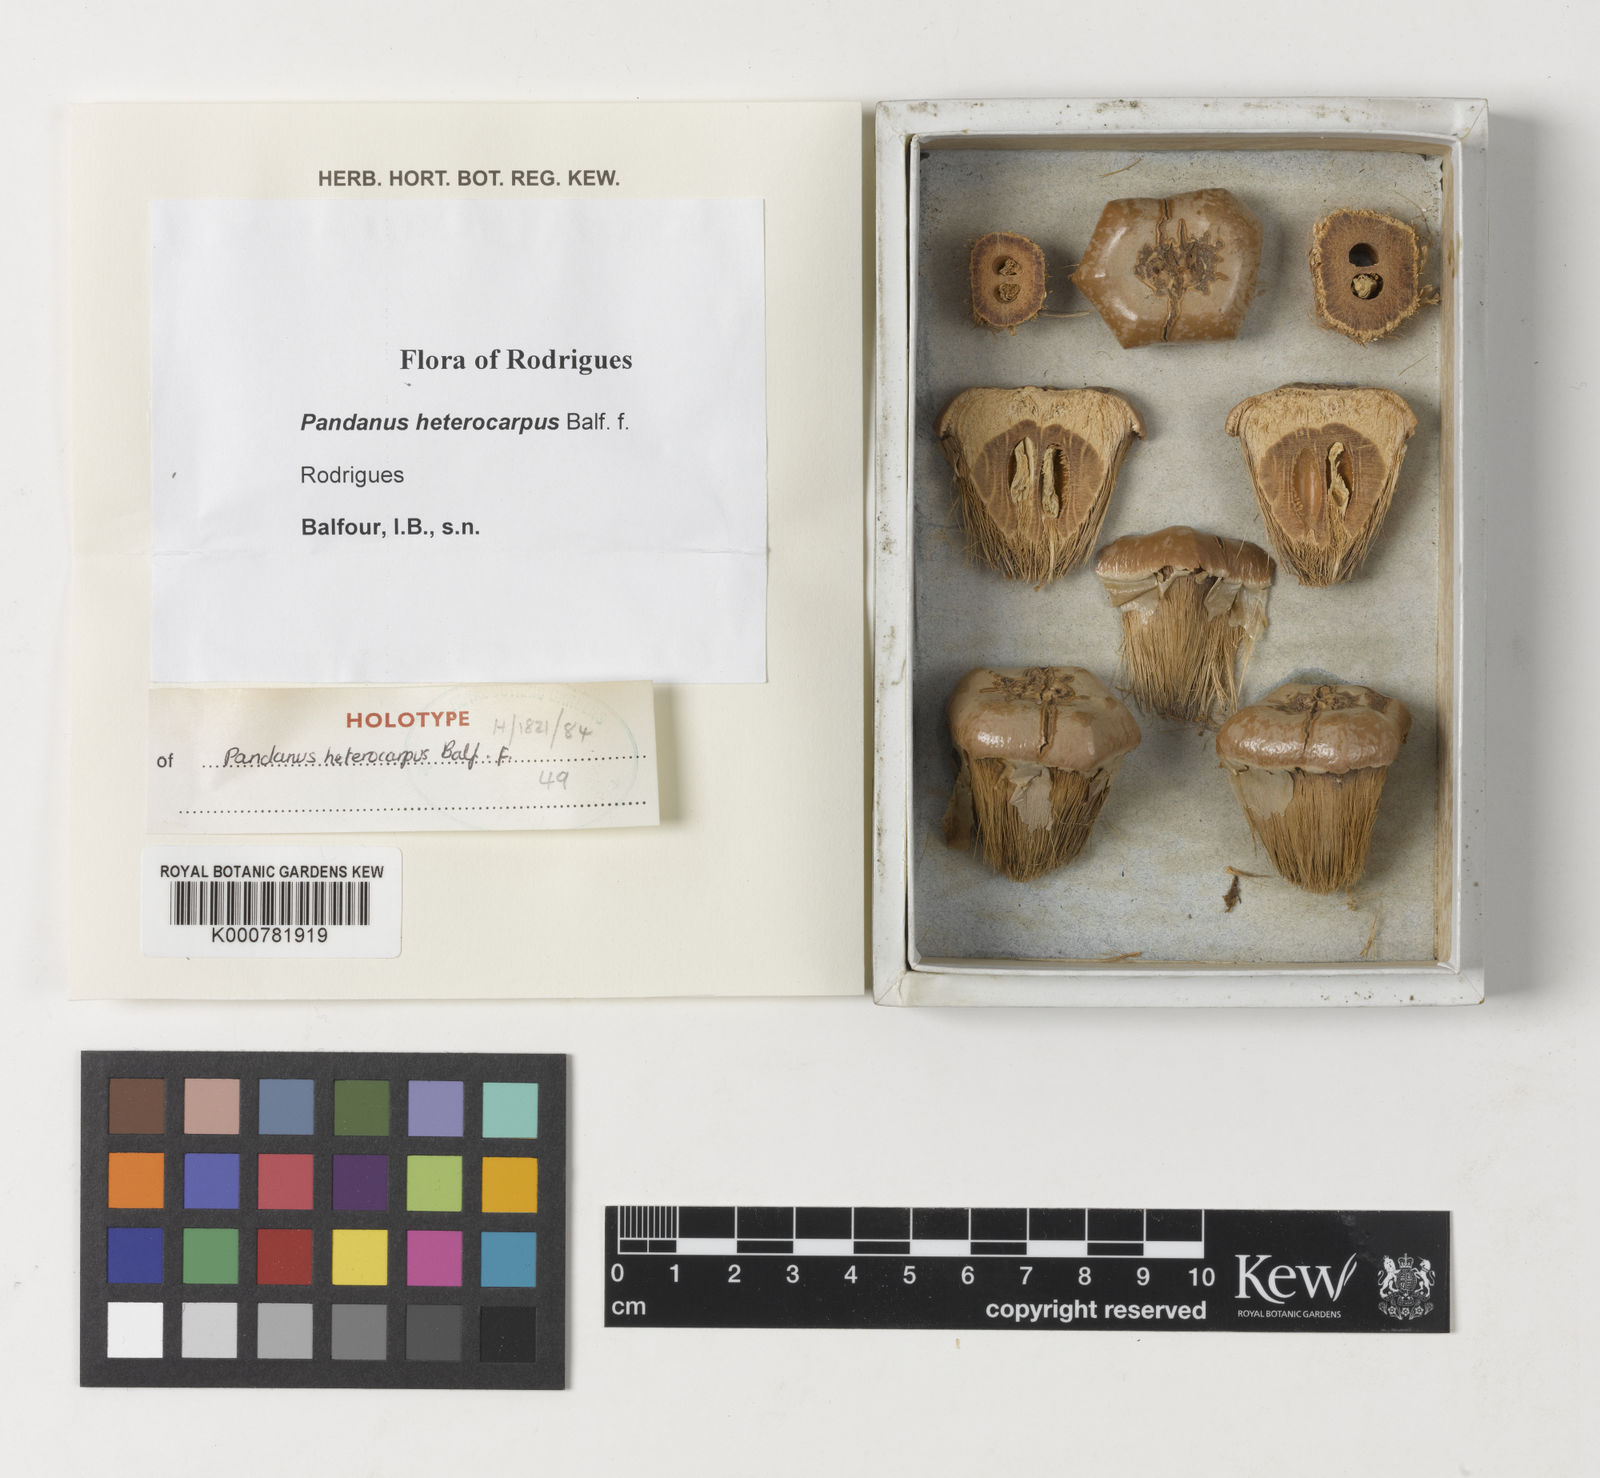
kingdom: Plantae
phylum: Tracheophyta
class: Liliopsida
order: Pandanales
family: Pandanaceae
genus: Pandanus
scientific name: Pandanus heterocarpus
